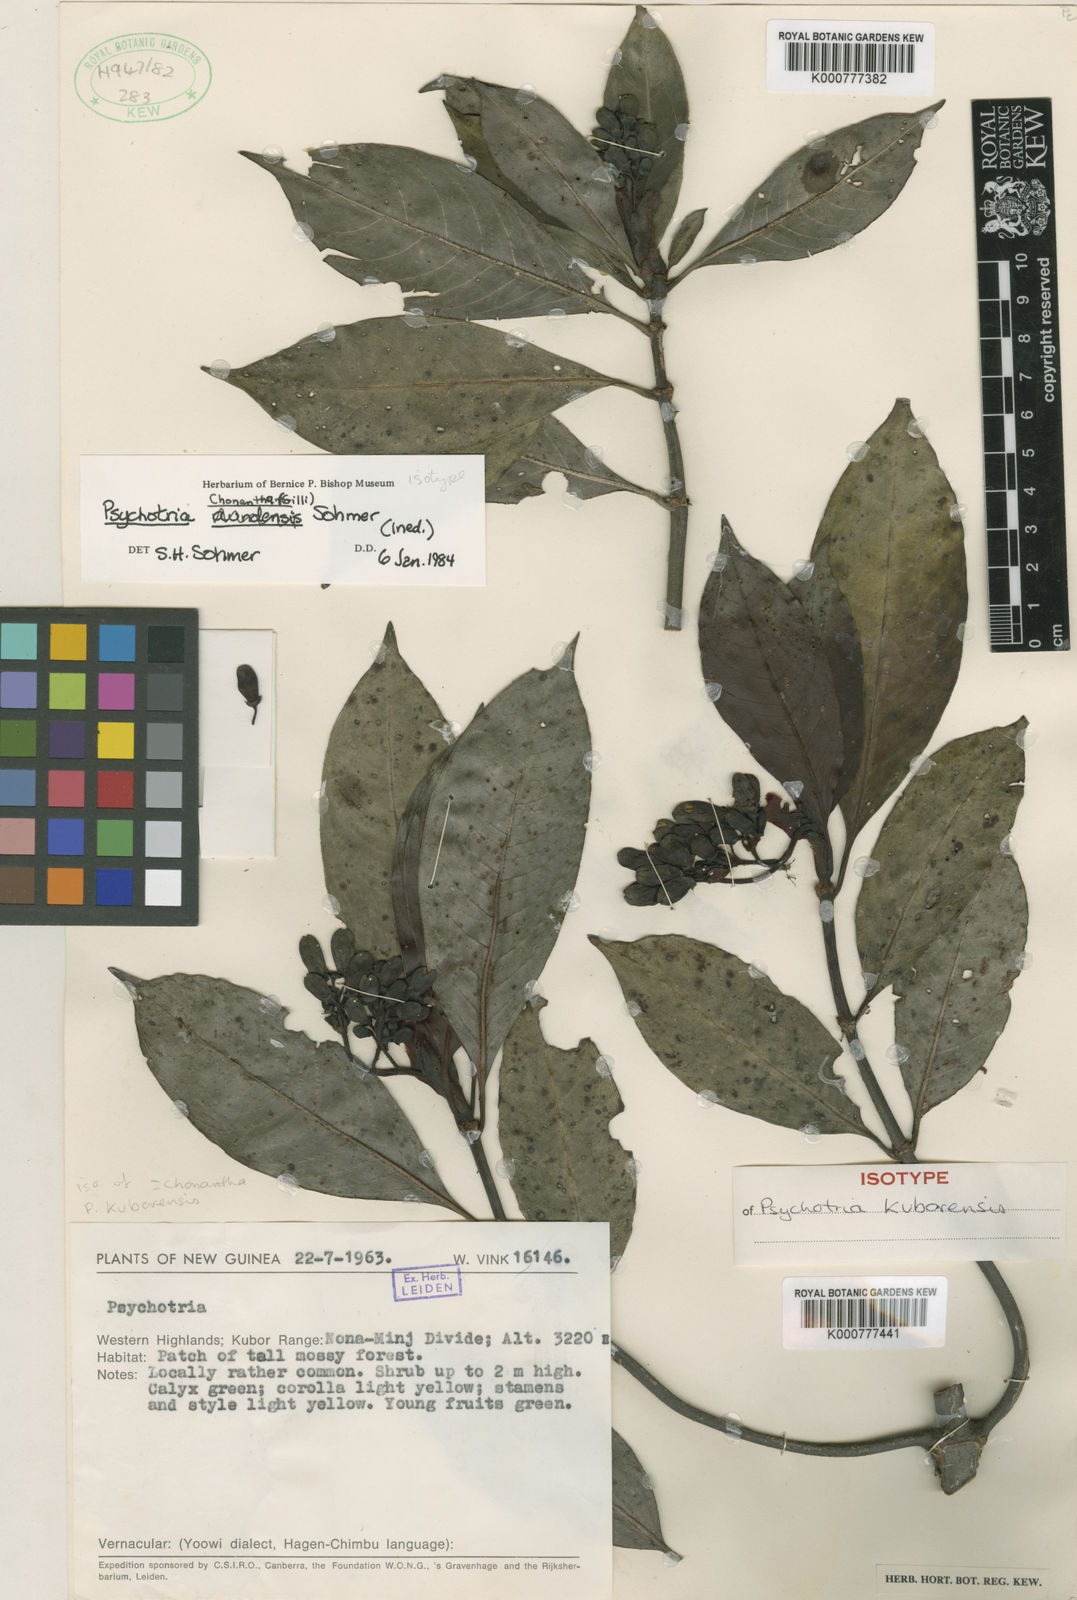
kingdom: Plantae
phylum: Tracheophyta
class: Magnoliopsida
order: Gentianales
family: Rubiaceae
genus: Psychotria
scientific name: Psychotria chonantha
